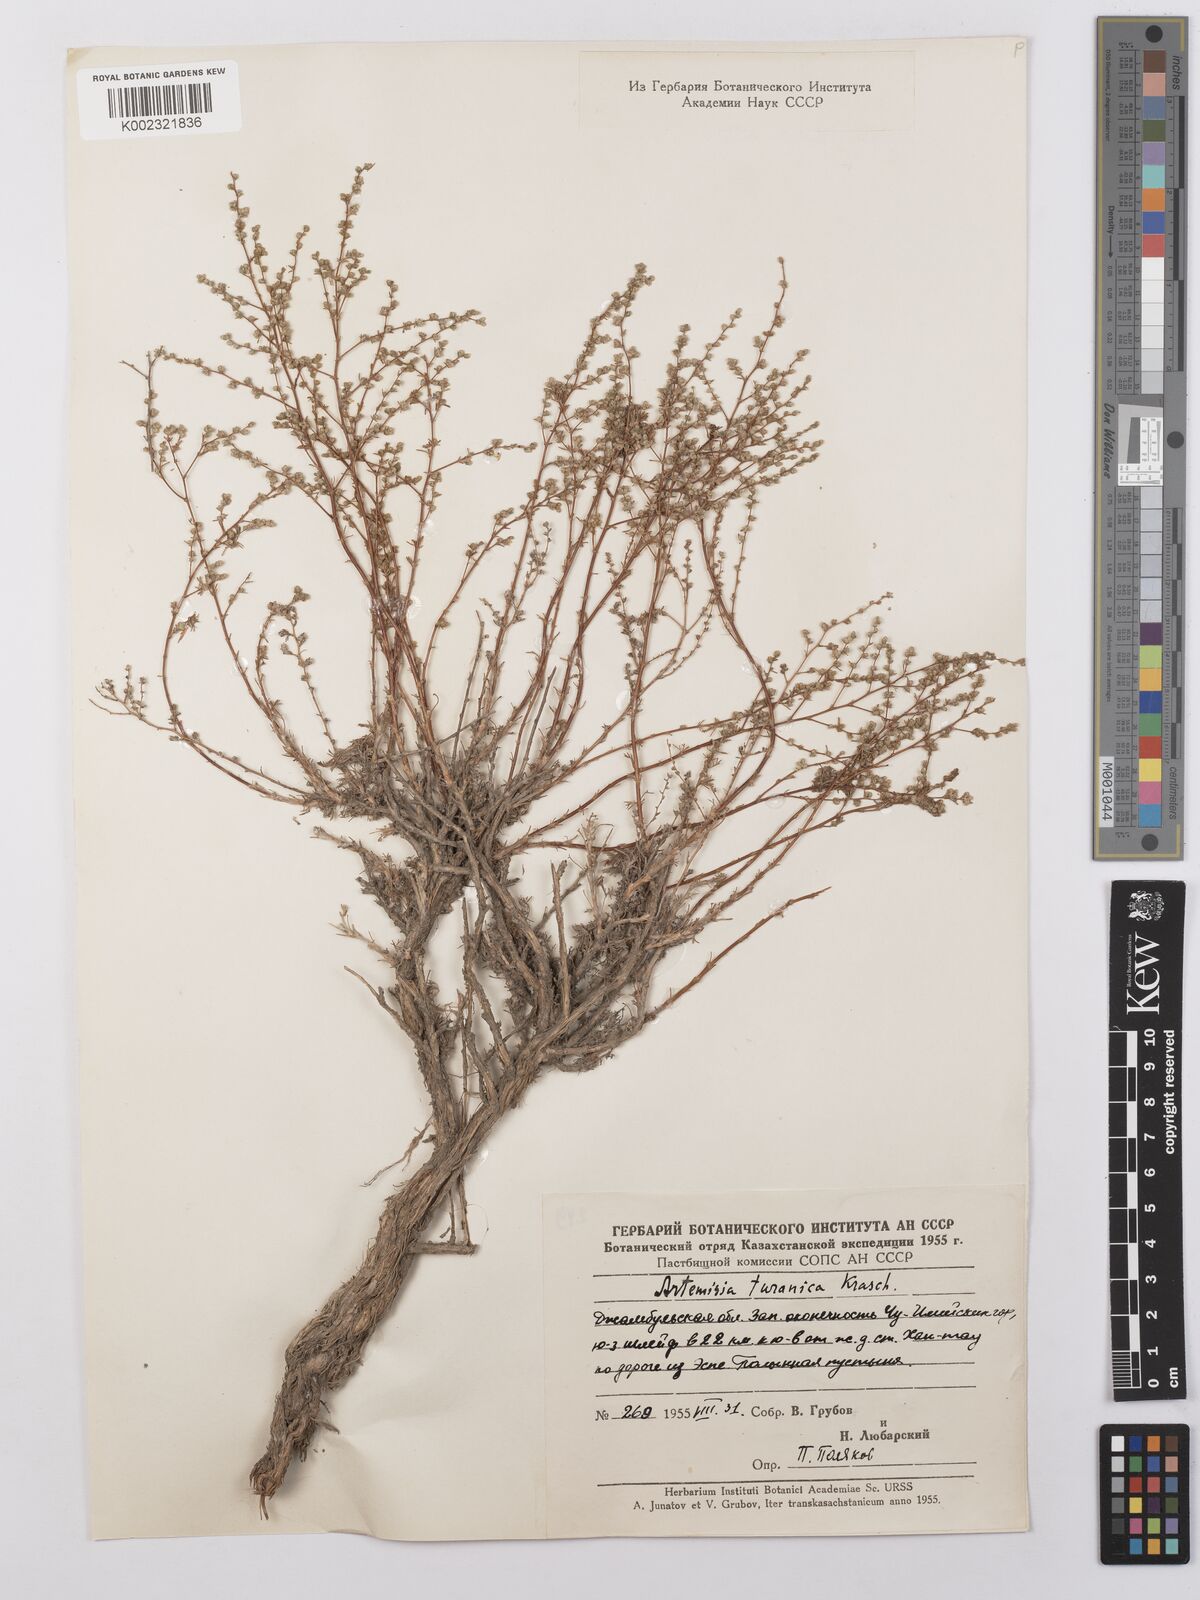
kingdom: Plantae
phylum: Tracheophyta
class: Magnoliopsida
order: Asterales
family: Asteraceae
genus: Artemisia
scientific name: Artemisia turanica
